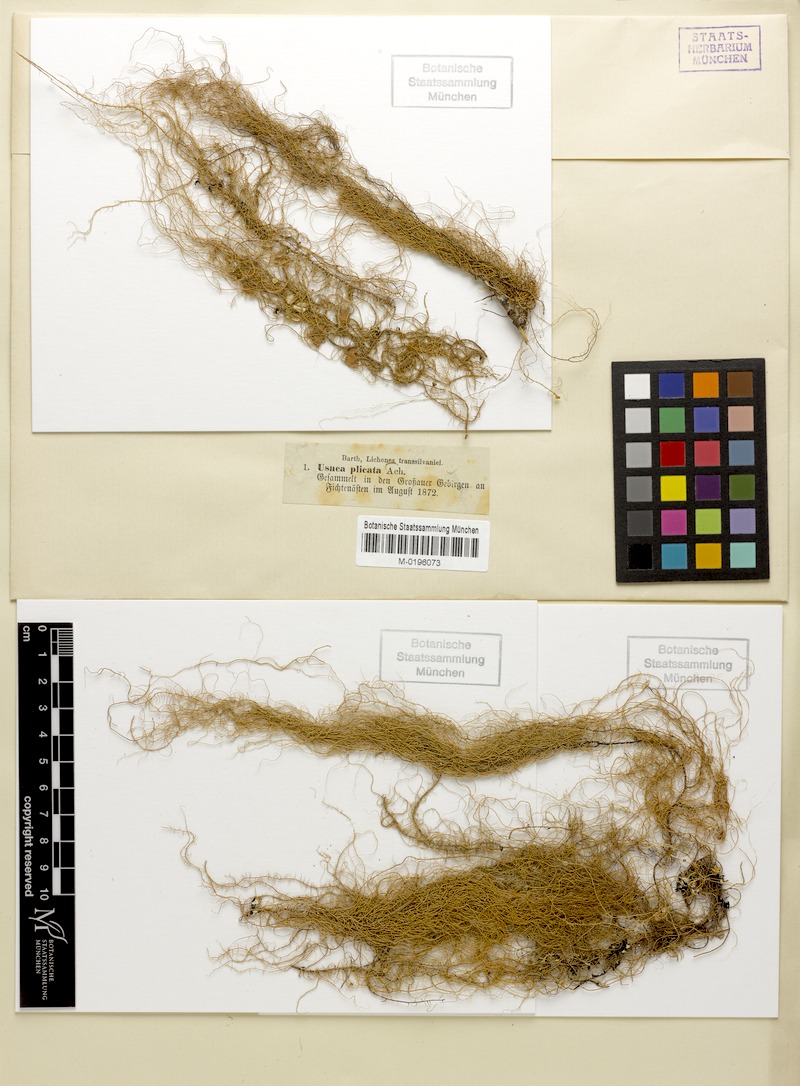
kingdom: Fungi
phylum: Ascomycota
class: Lecanoromycetes
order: Lecanorales
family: Parmeliaceae
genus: Usnea
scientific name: Usnea plicata
